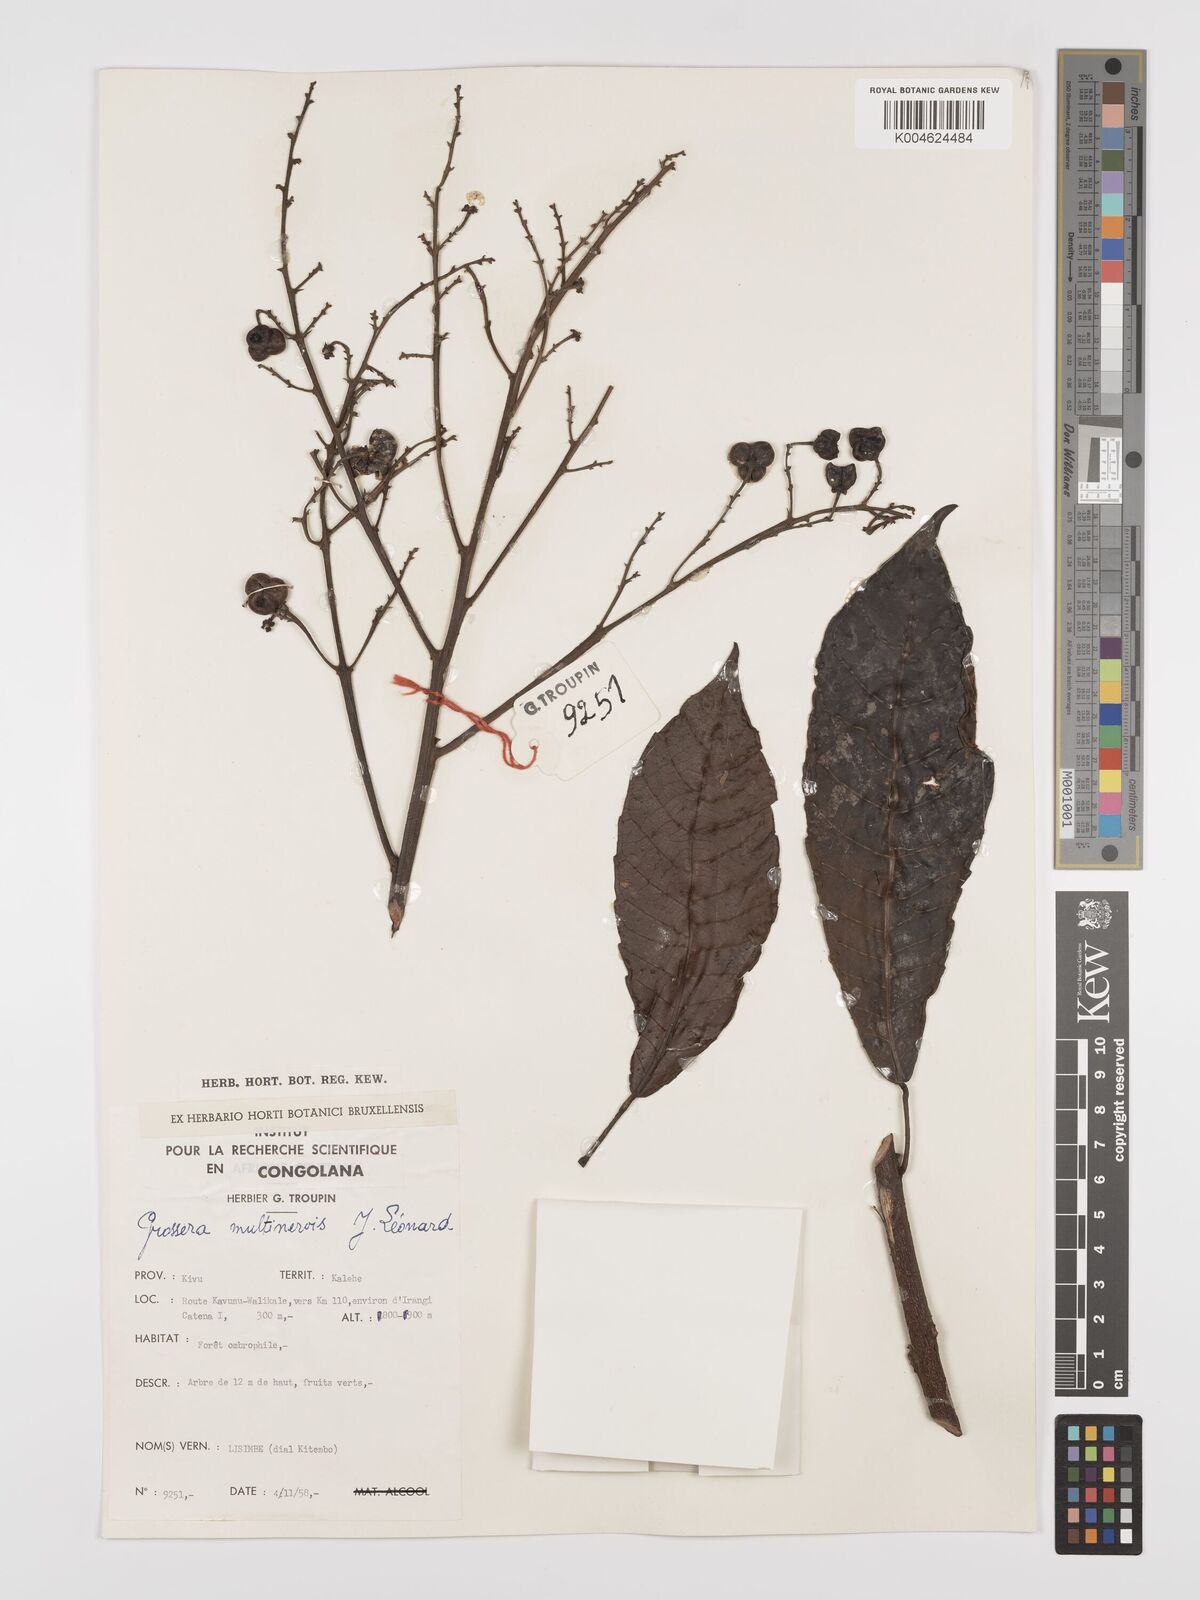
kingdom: Plantae
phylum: Tracheophyta
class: Magnoliopsida
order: Malpighiales
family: Euphorbiaceae
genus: Grossera
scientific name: Grossera multinervis
